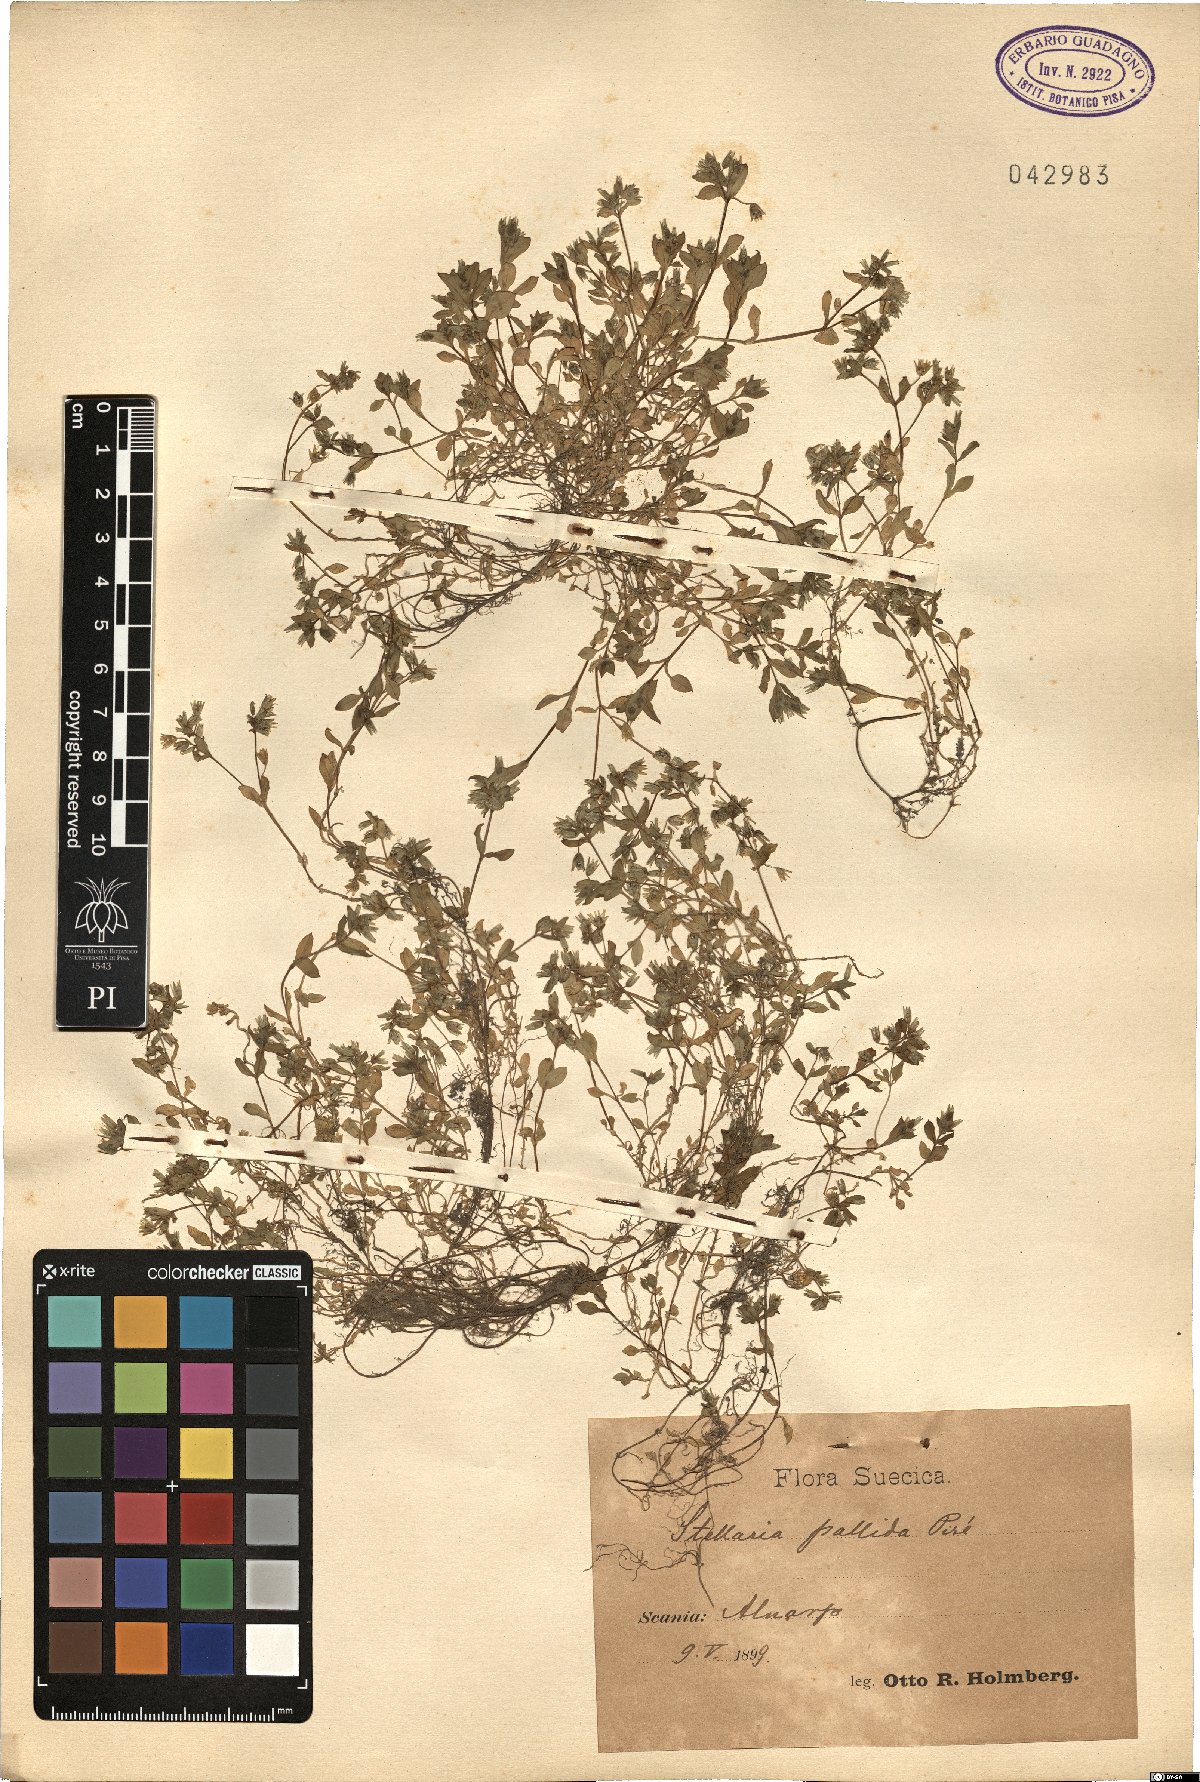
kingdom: Plantae
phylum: Tracheophyta
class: Magnoliopsida
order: Caryophyllales
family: Caryophyllaceae
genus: Stellaria
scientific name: Stellaria apetala
